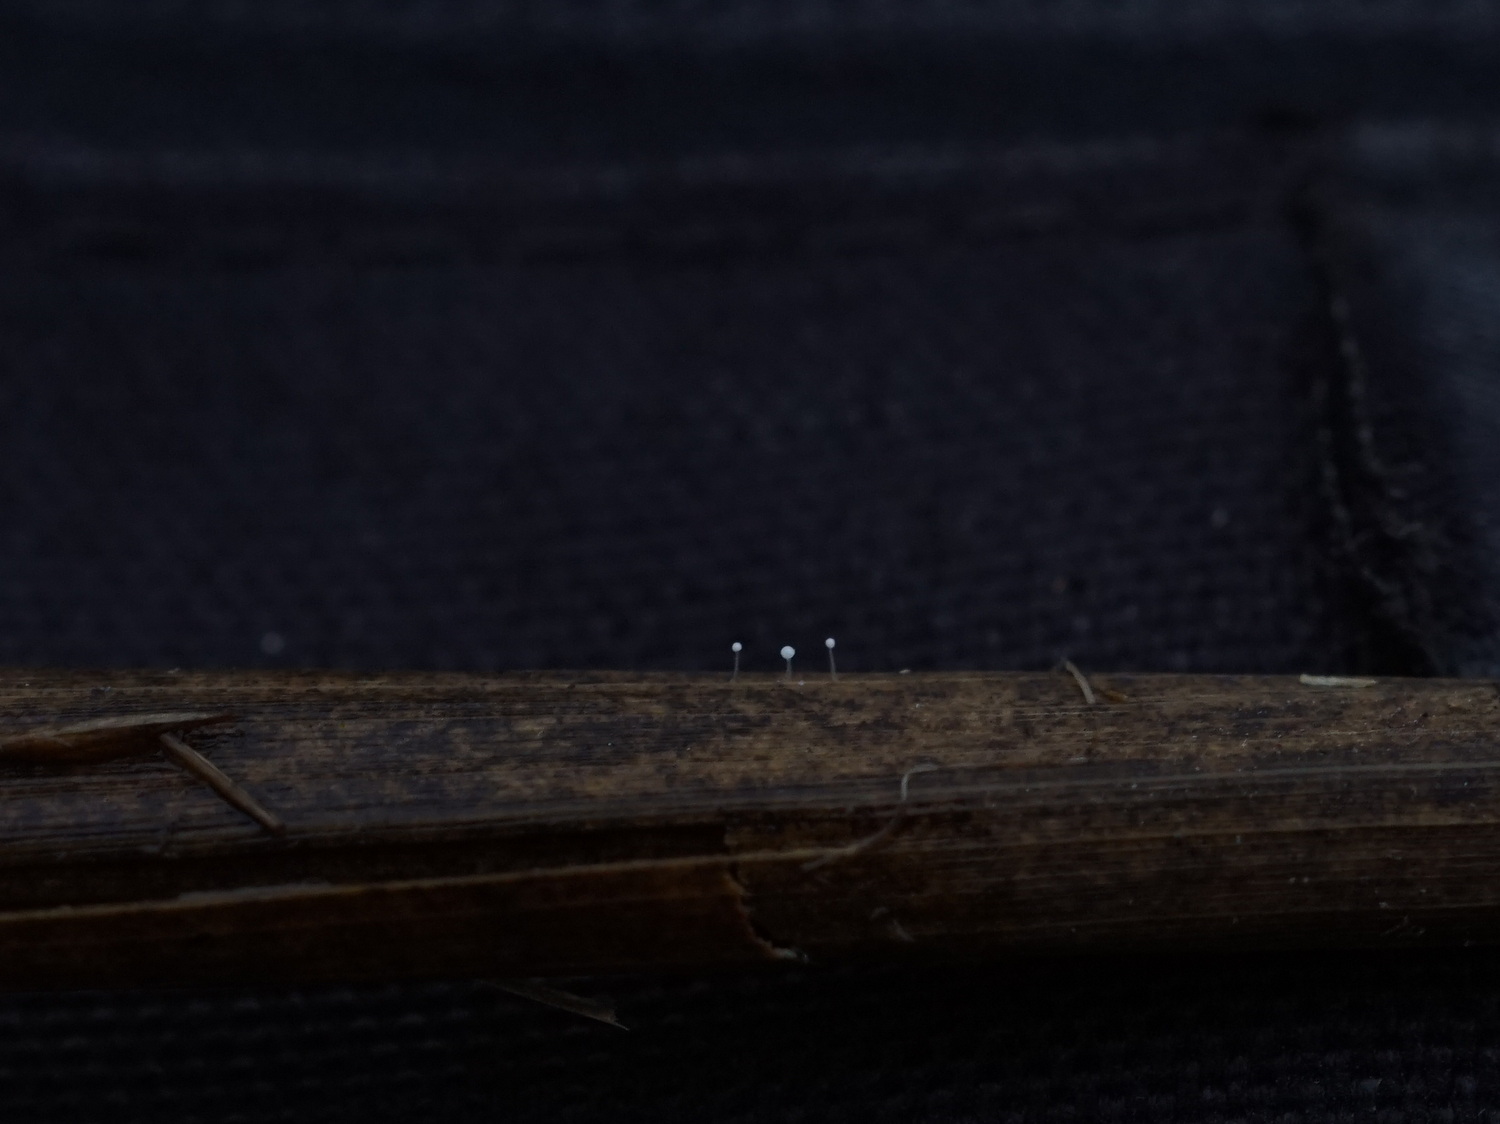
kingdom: Fungi
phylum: Basidiomycota
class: Agaricomycetes
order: Agaricales
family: Typhulaceae
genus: Typhula
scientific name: Typhula
